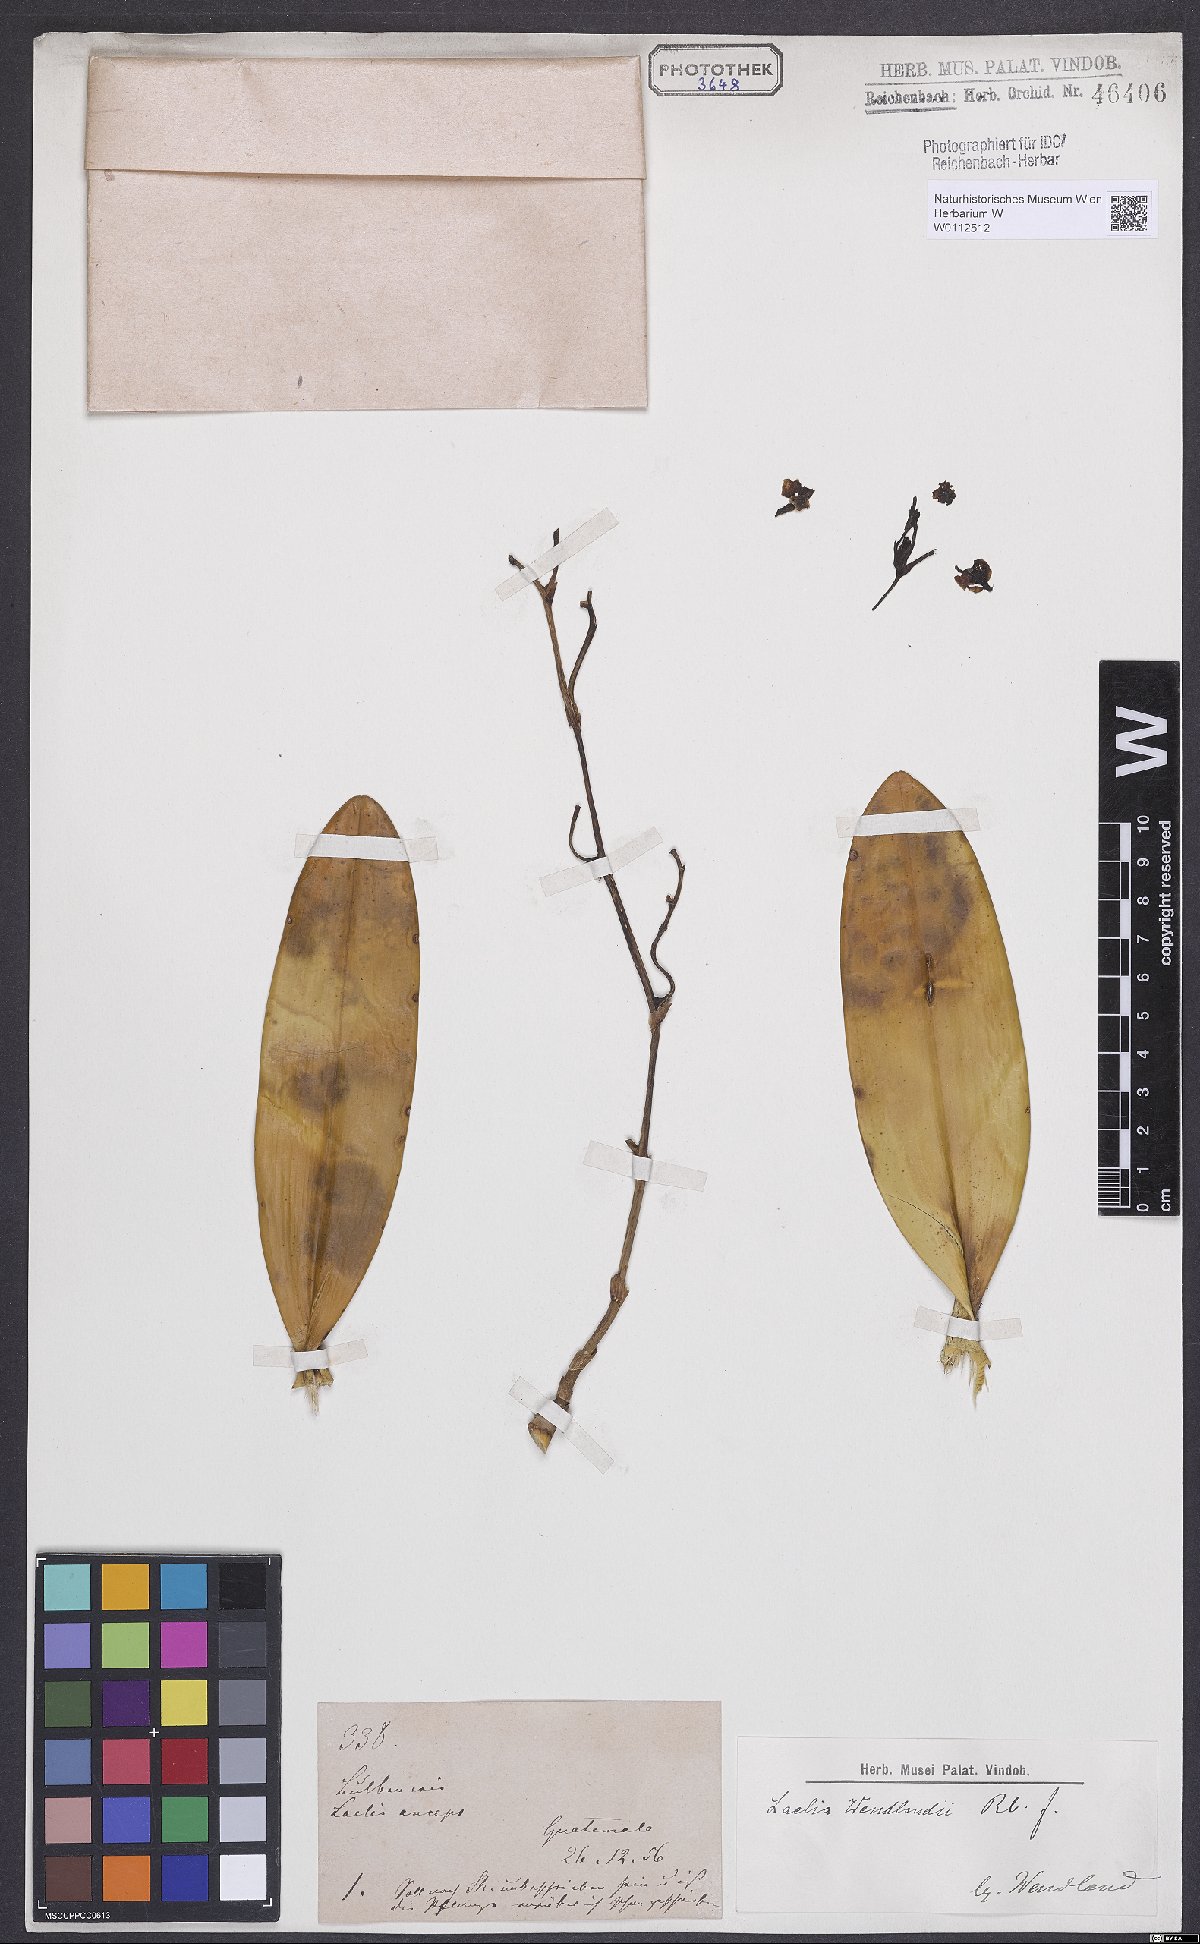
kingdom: Plantae
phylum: Tracheophyta
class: Liliopsida
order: Asparagales
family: Orchidaceae
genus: Myrmecophila
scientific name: Myrmecophila wendlandii
